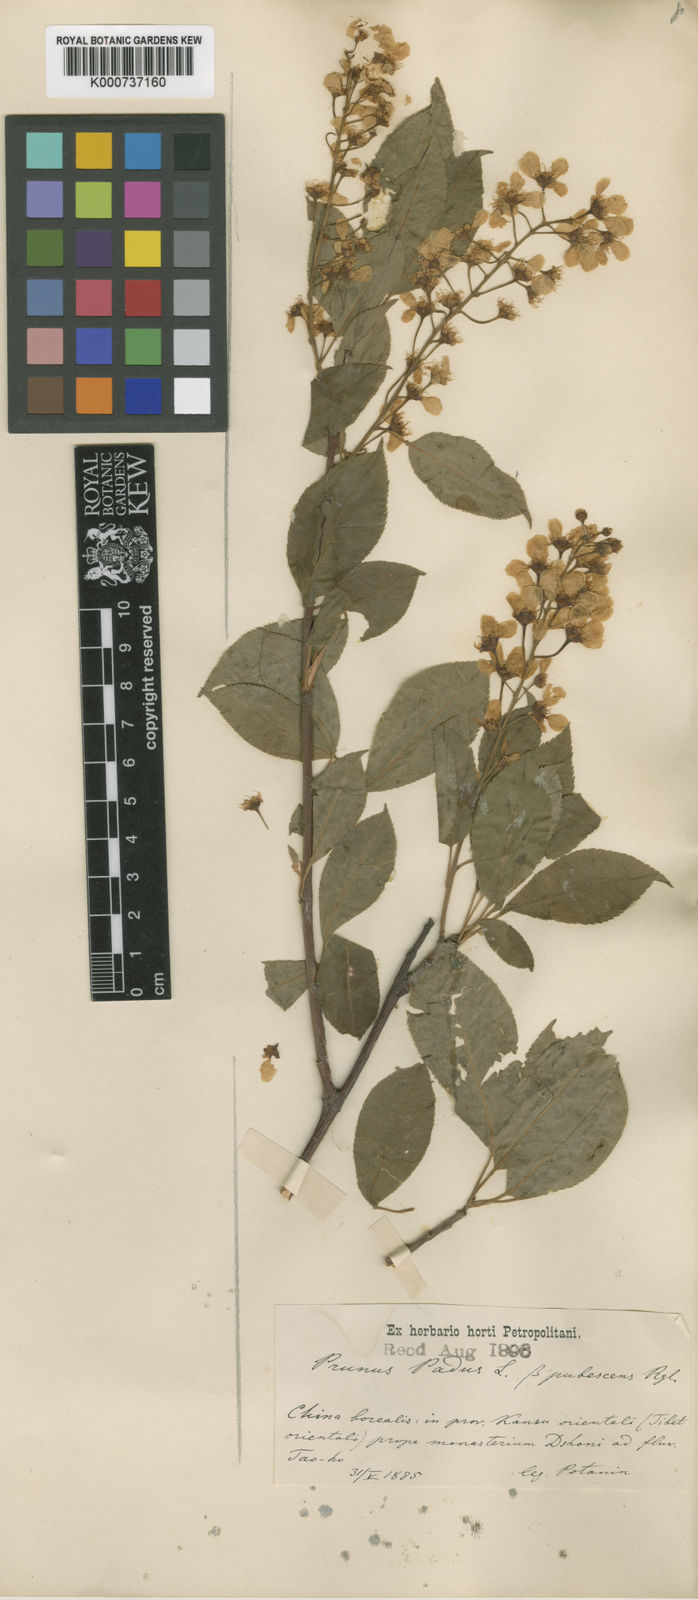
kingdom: Plantae
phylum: Tracheophyta
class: Magnoliopsida
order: Rosales
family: Rosaceae
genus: Prunus
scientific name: Prunus padus
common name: Bird cherry
